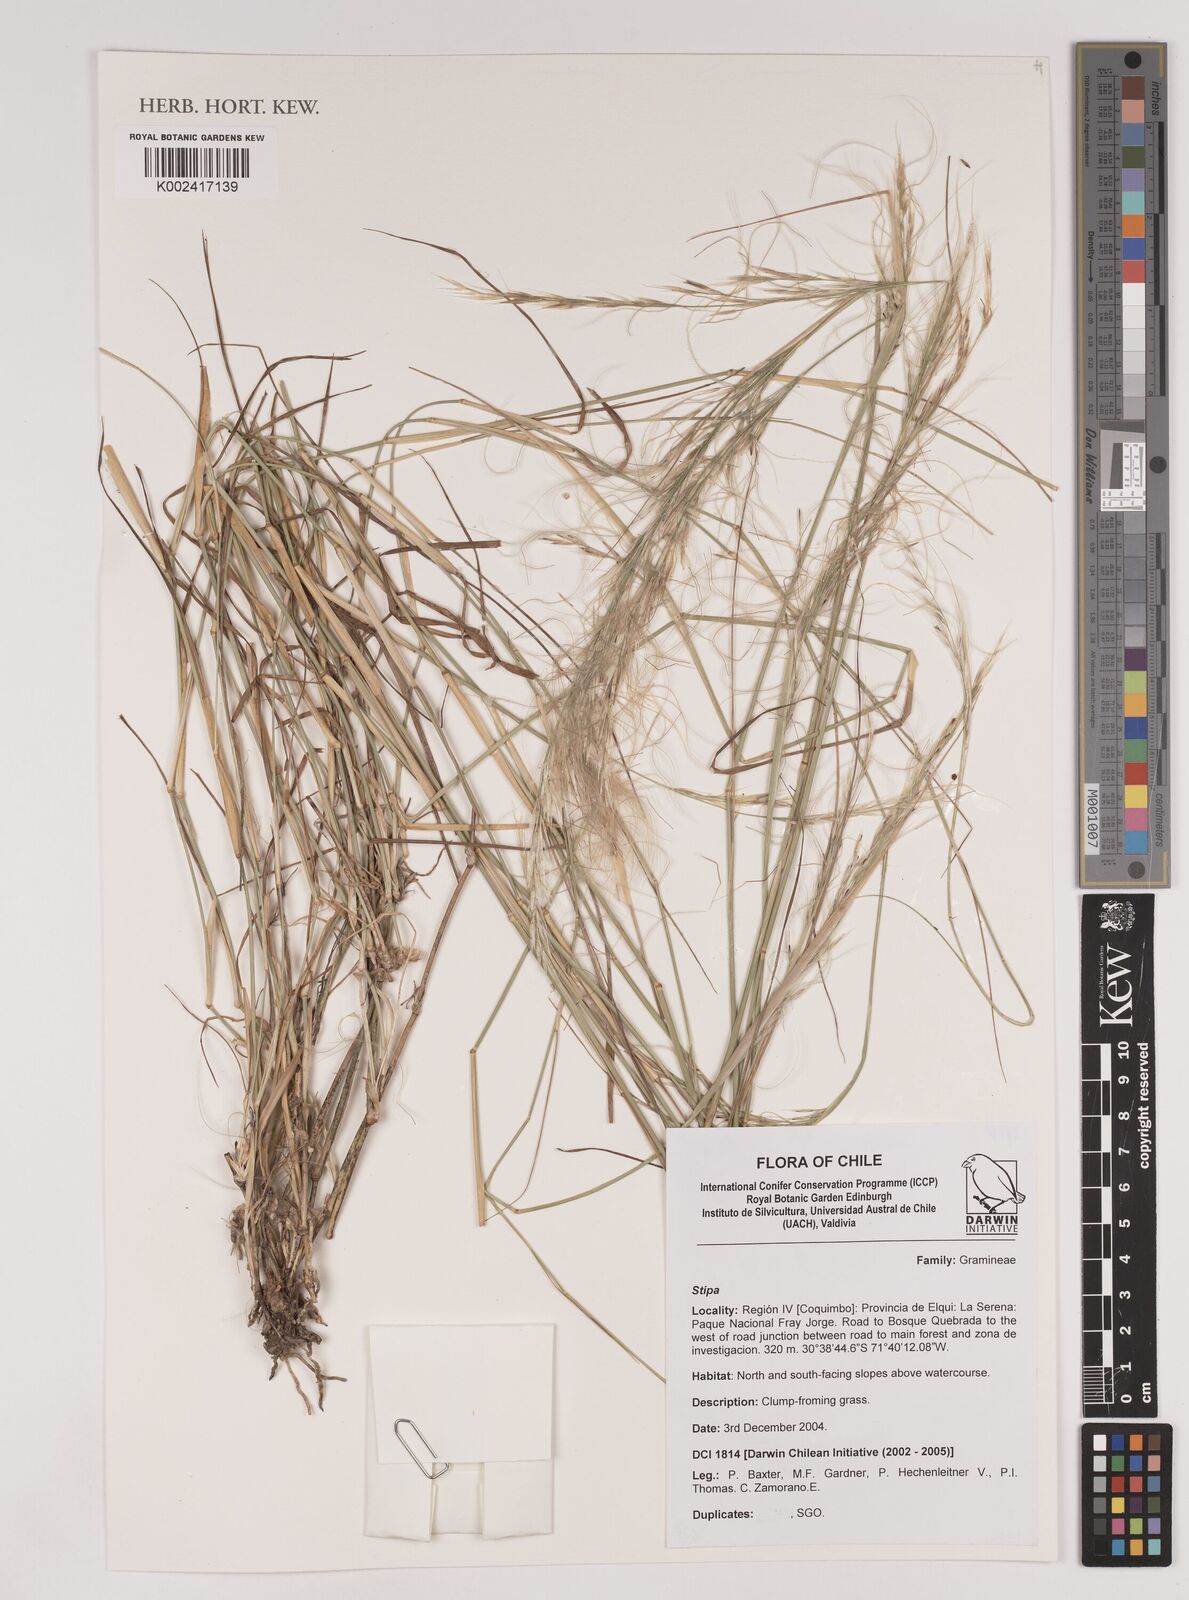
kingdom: Plantae
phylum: Tracheophyta
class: Liliopsida
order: Poales
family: Poaceae
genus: Stipa
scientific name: Stipa
